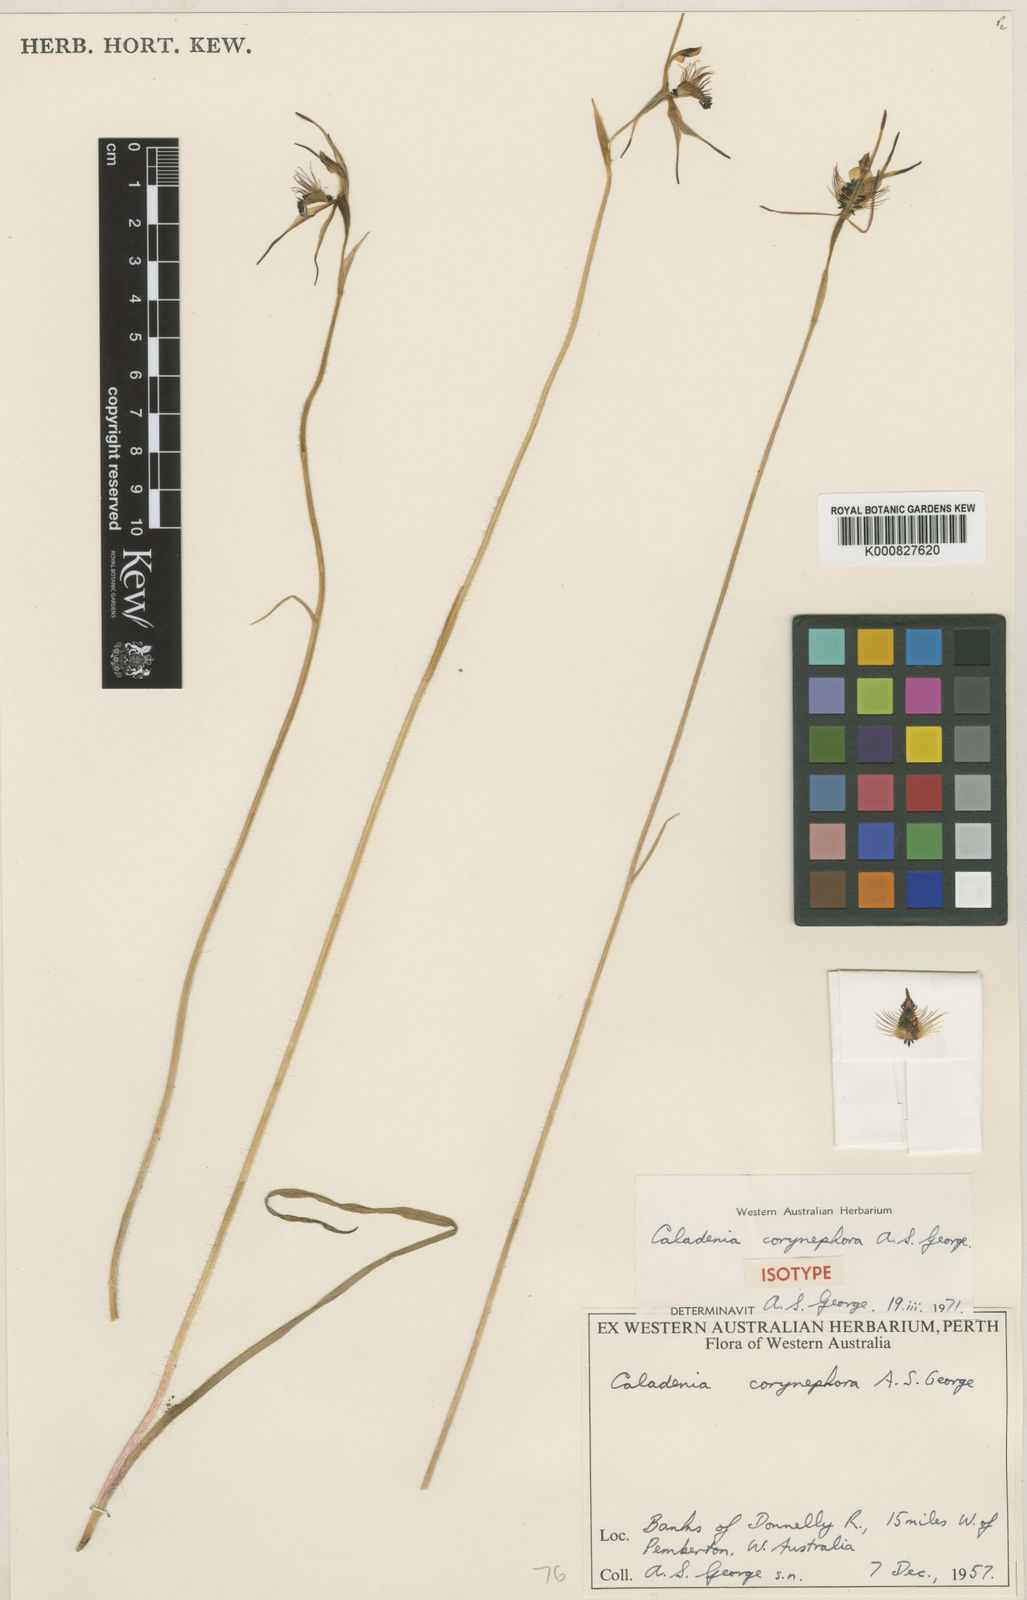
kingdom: Plantae
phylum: Tracheophyta
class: Liliopsida
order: Asparagales
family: Orchidaceae
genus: Caladenia
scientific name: Caladenia corynephora
